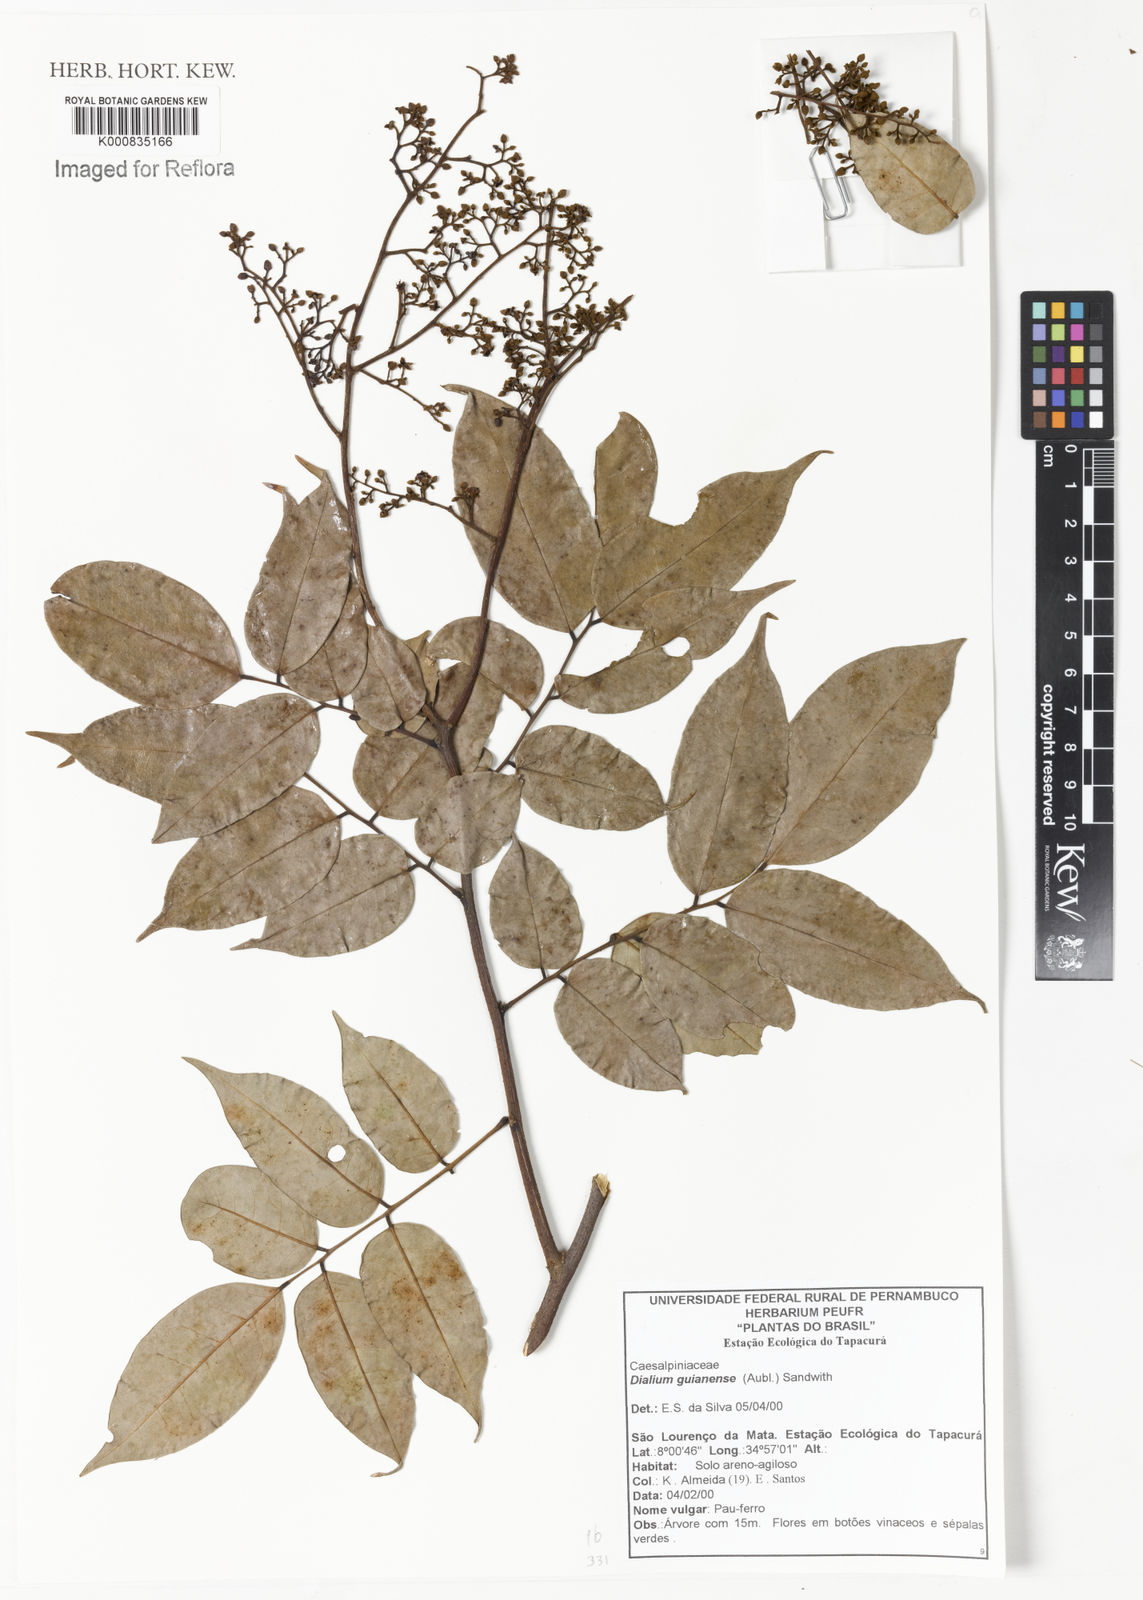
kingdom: Plantae
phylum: Tracheophyta
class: Magnoliopsida
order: Fabales
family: Fabaceae
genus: Dialium
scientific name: Dialium guianense
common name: Ironwood
